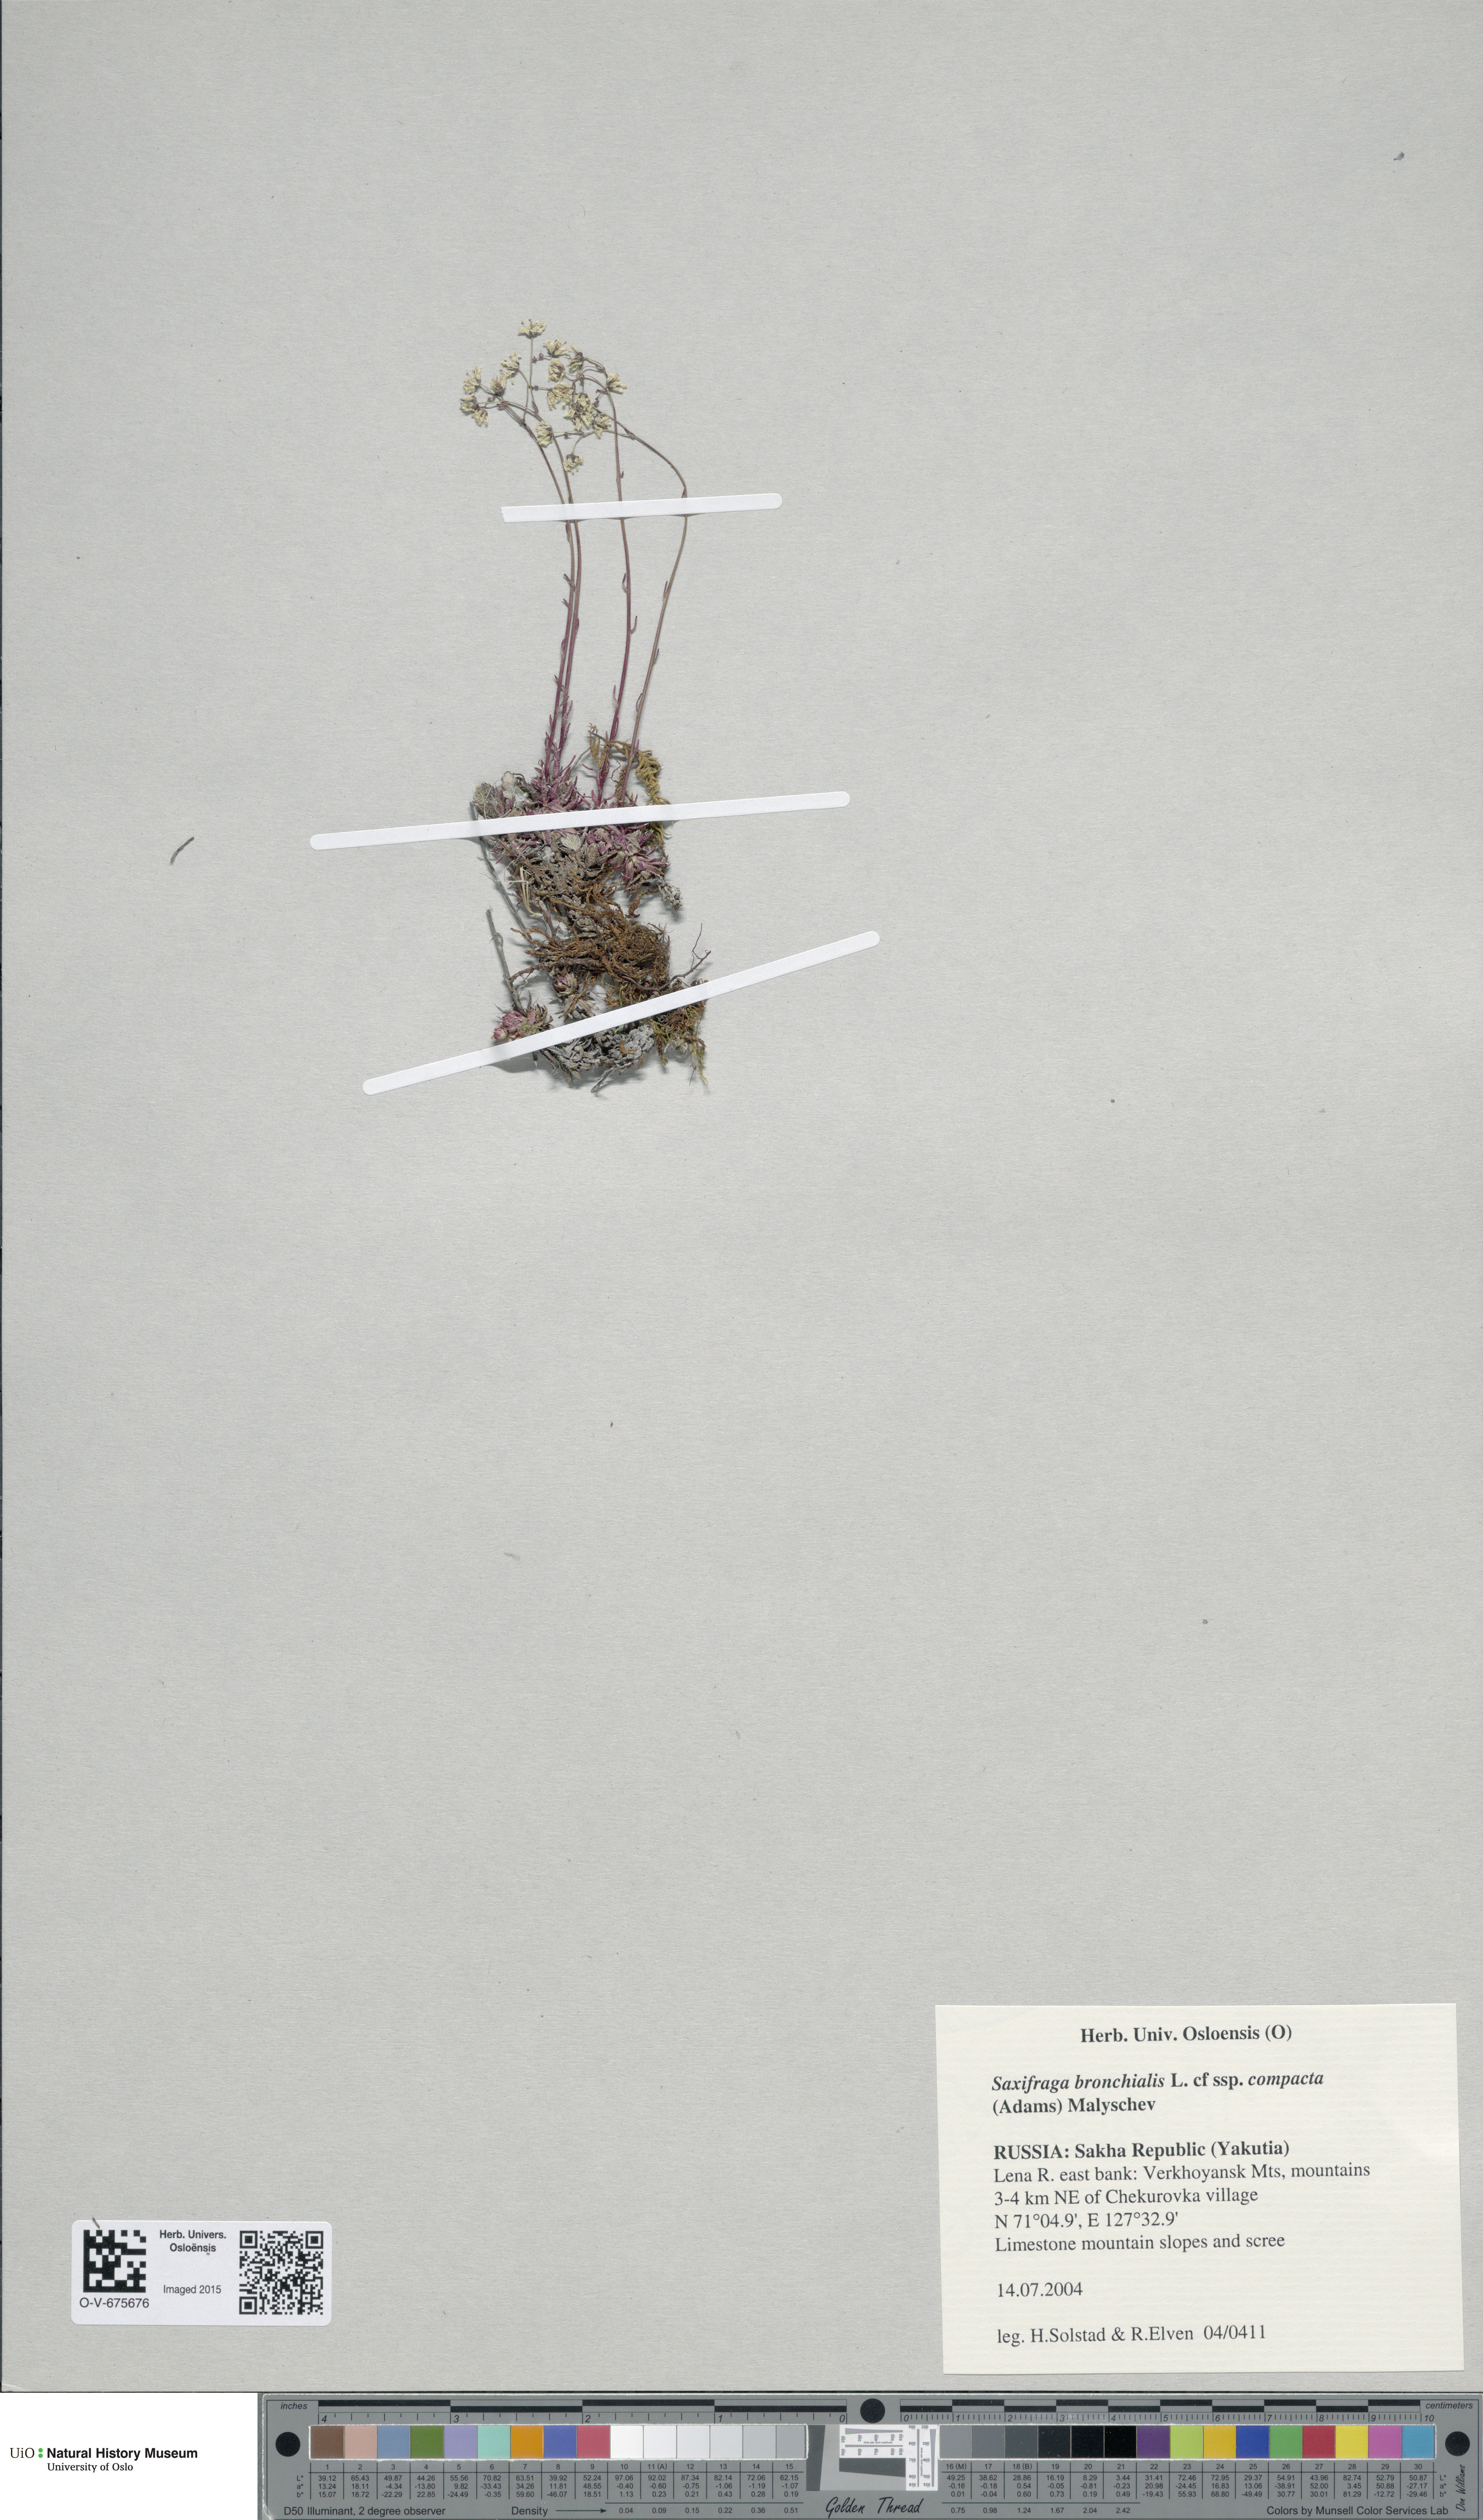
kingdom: Plantae
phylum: Tracheophyta
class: Magnoliopsida
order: Saxifragales
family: Saxifragaceae
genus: Saxifraga
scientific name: Saxifraga bronchialis
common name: Matted saxifrage
